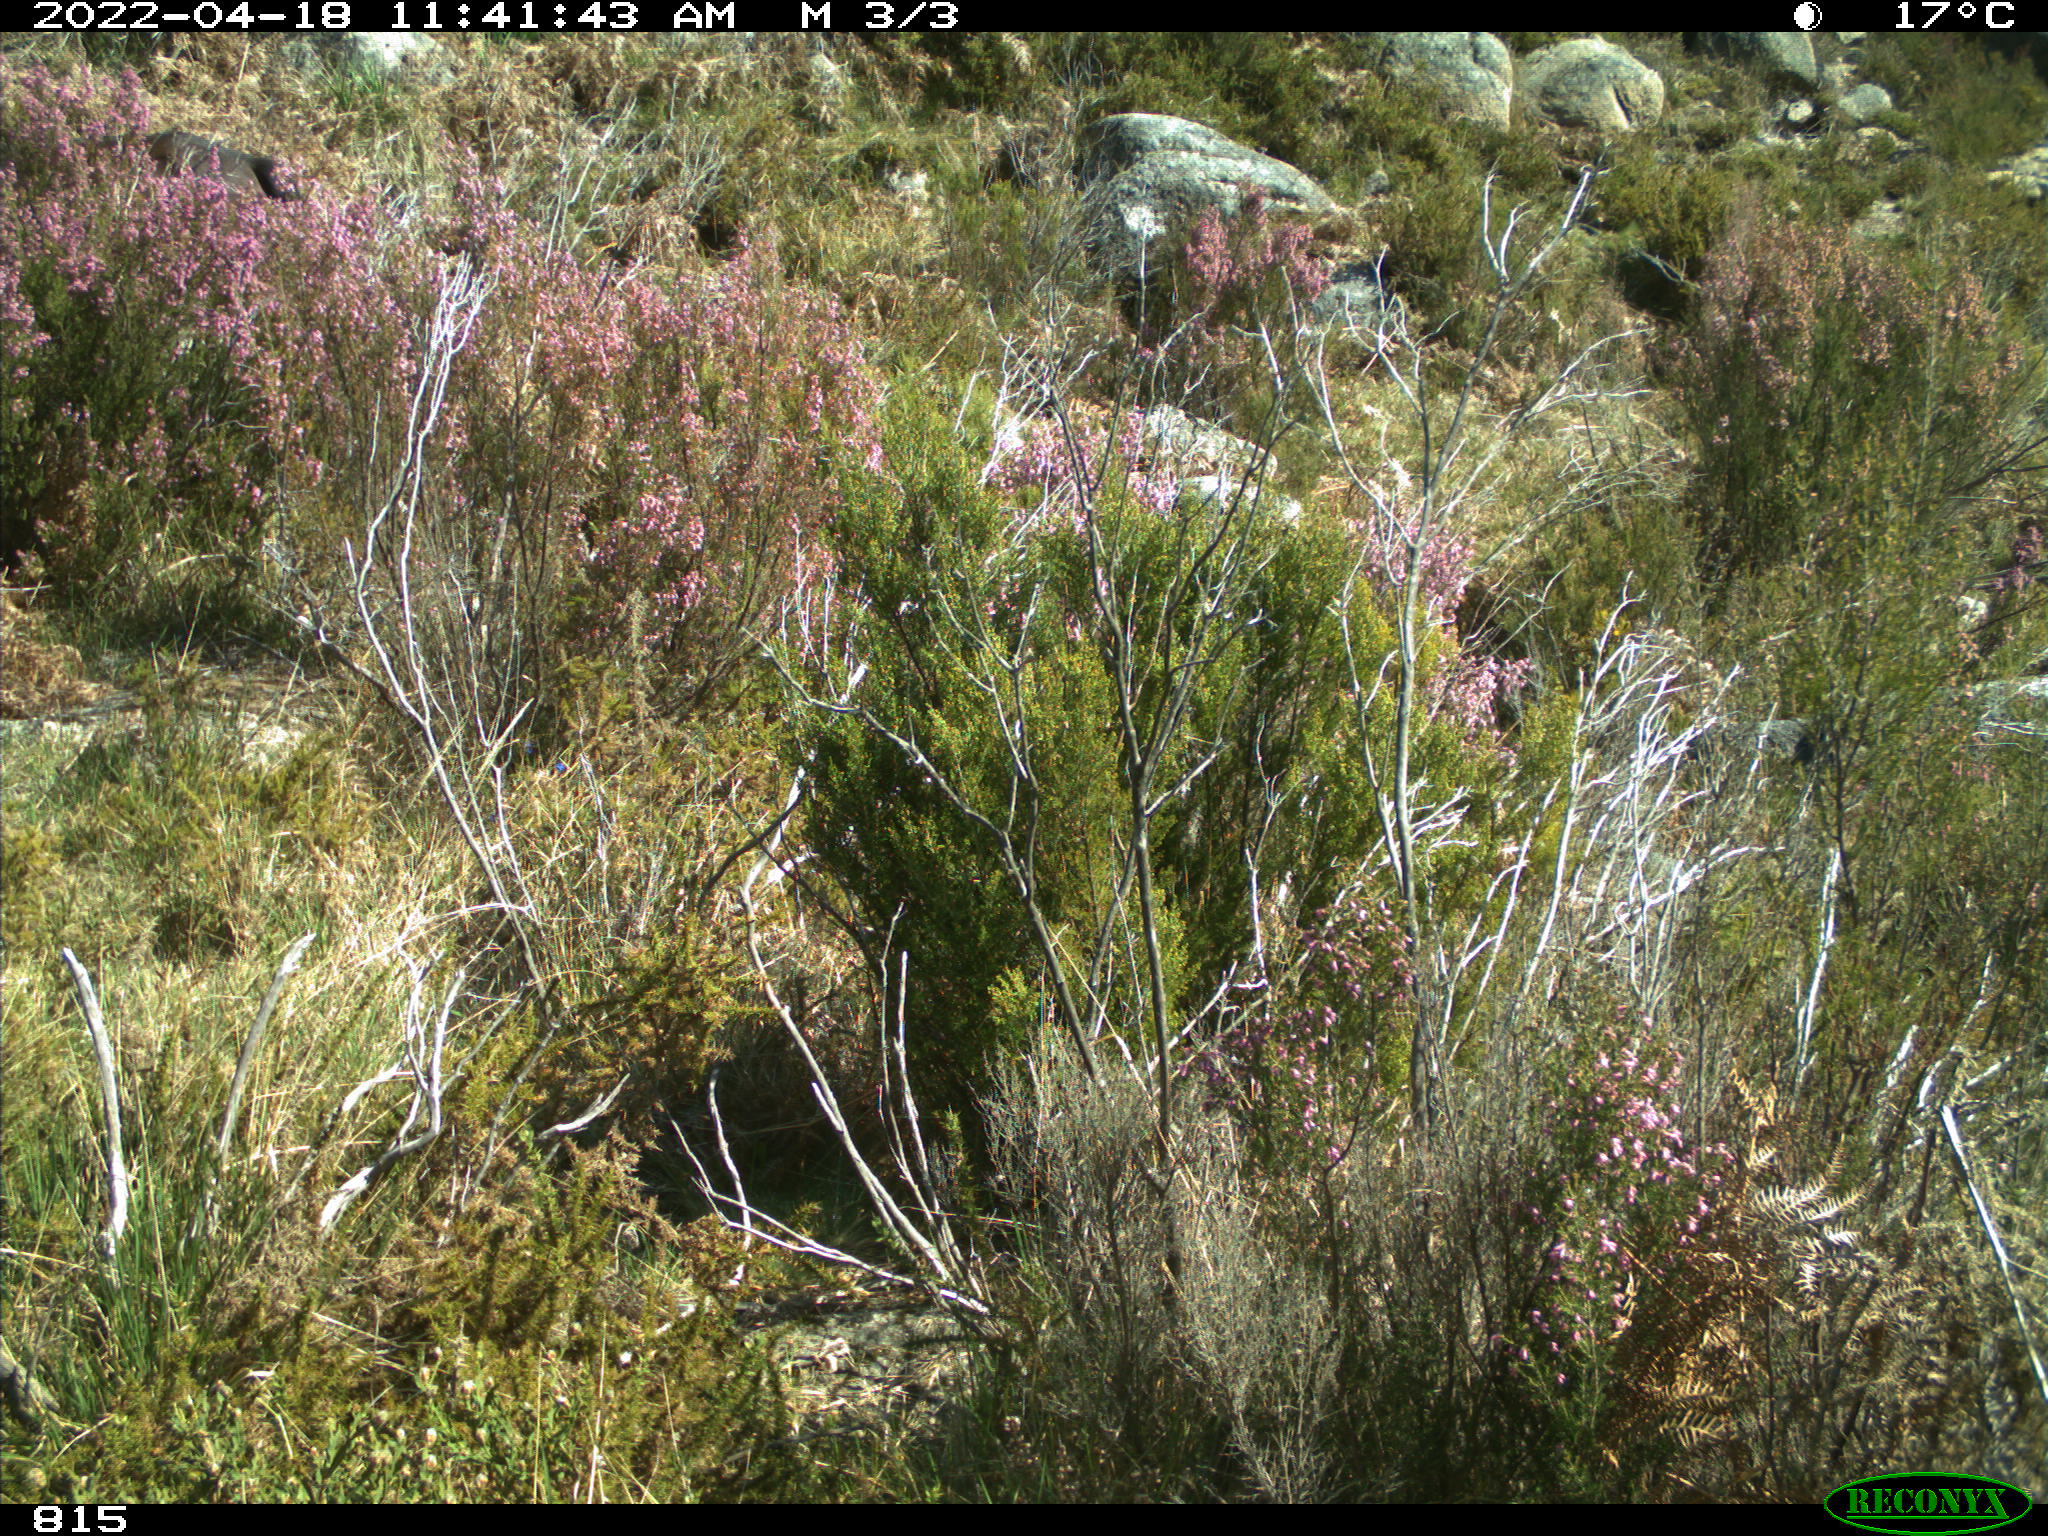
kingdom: Animalia
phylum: Chordata
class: Mammalia
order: Perissodactyla
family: Equidae
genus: Equus
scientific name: Equus caballus
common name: Horse
